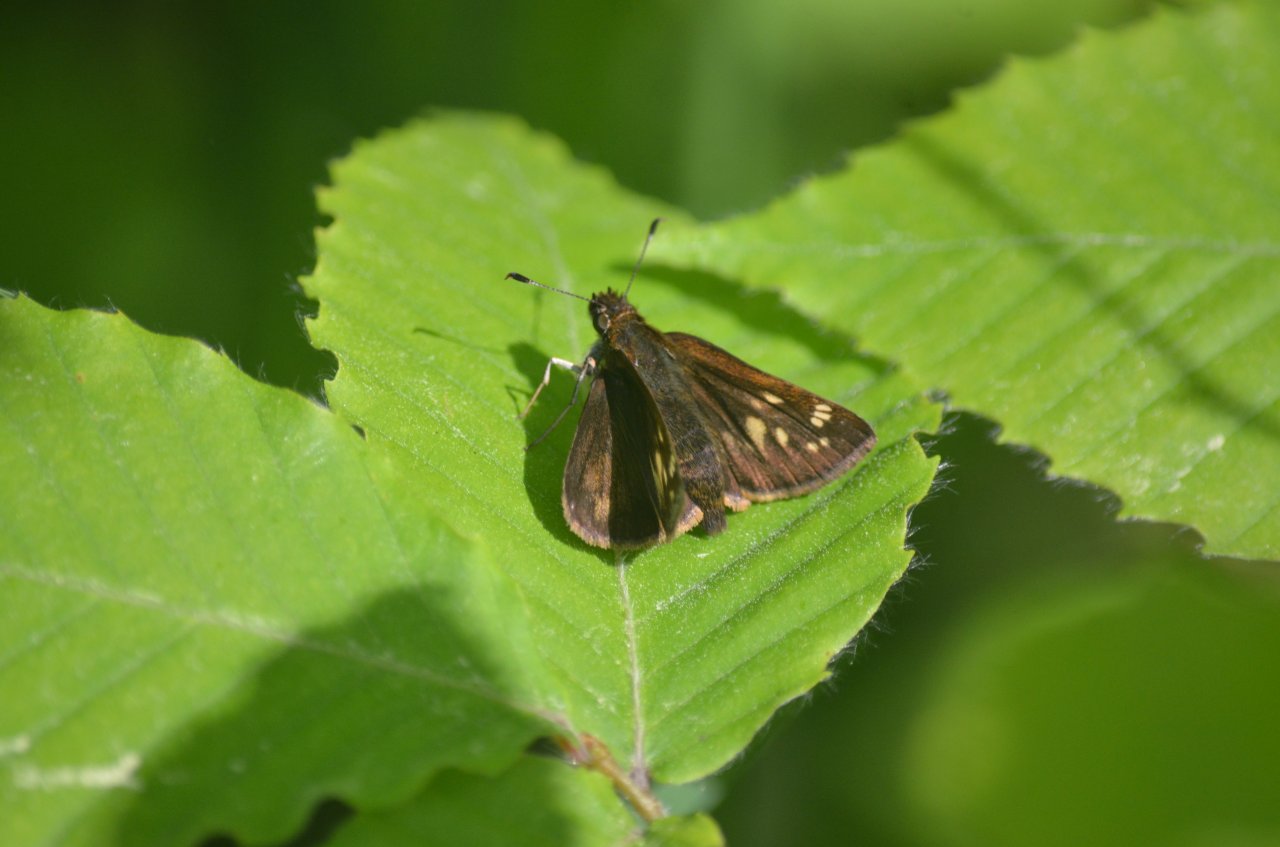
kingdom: Animalia
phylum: Arthropoda
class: Insecta
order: Lepidoptera
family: Hesperiidae
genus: Lon
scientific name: Lon hobomok
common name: Hobomok Skipper
